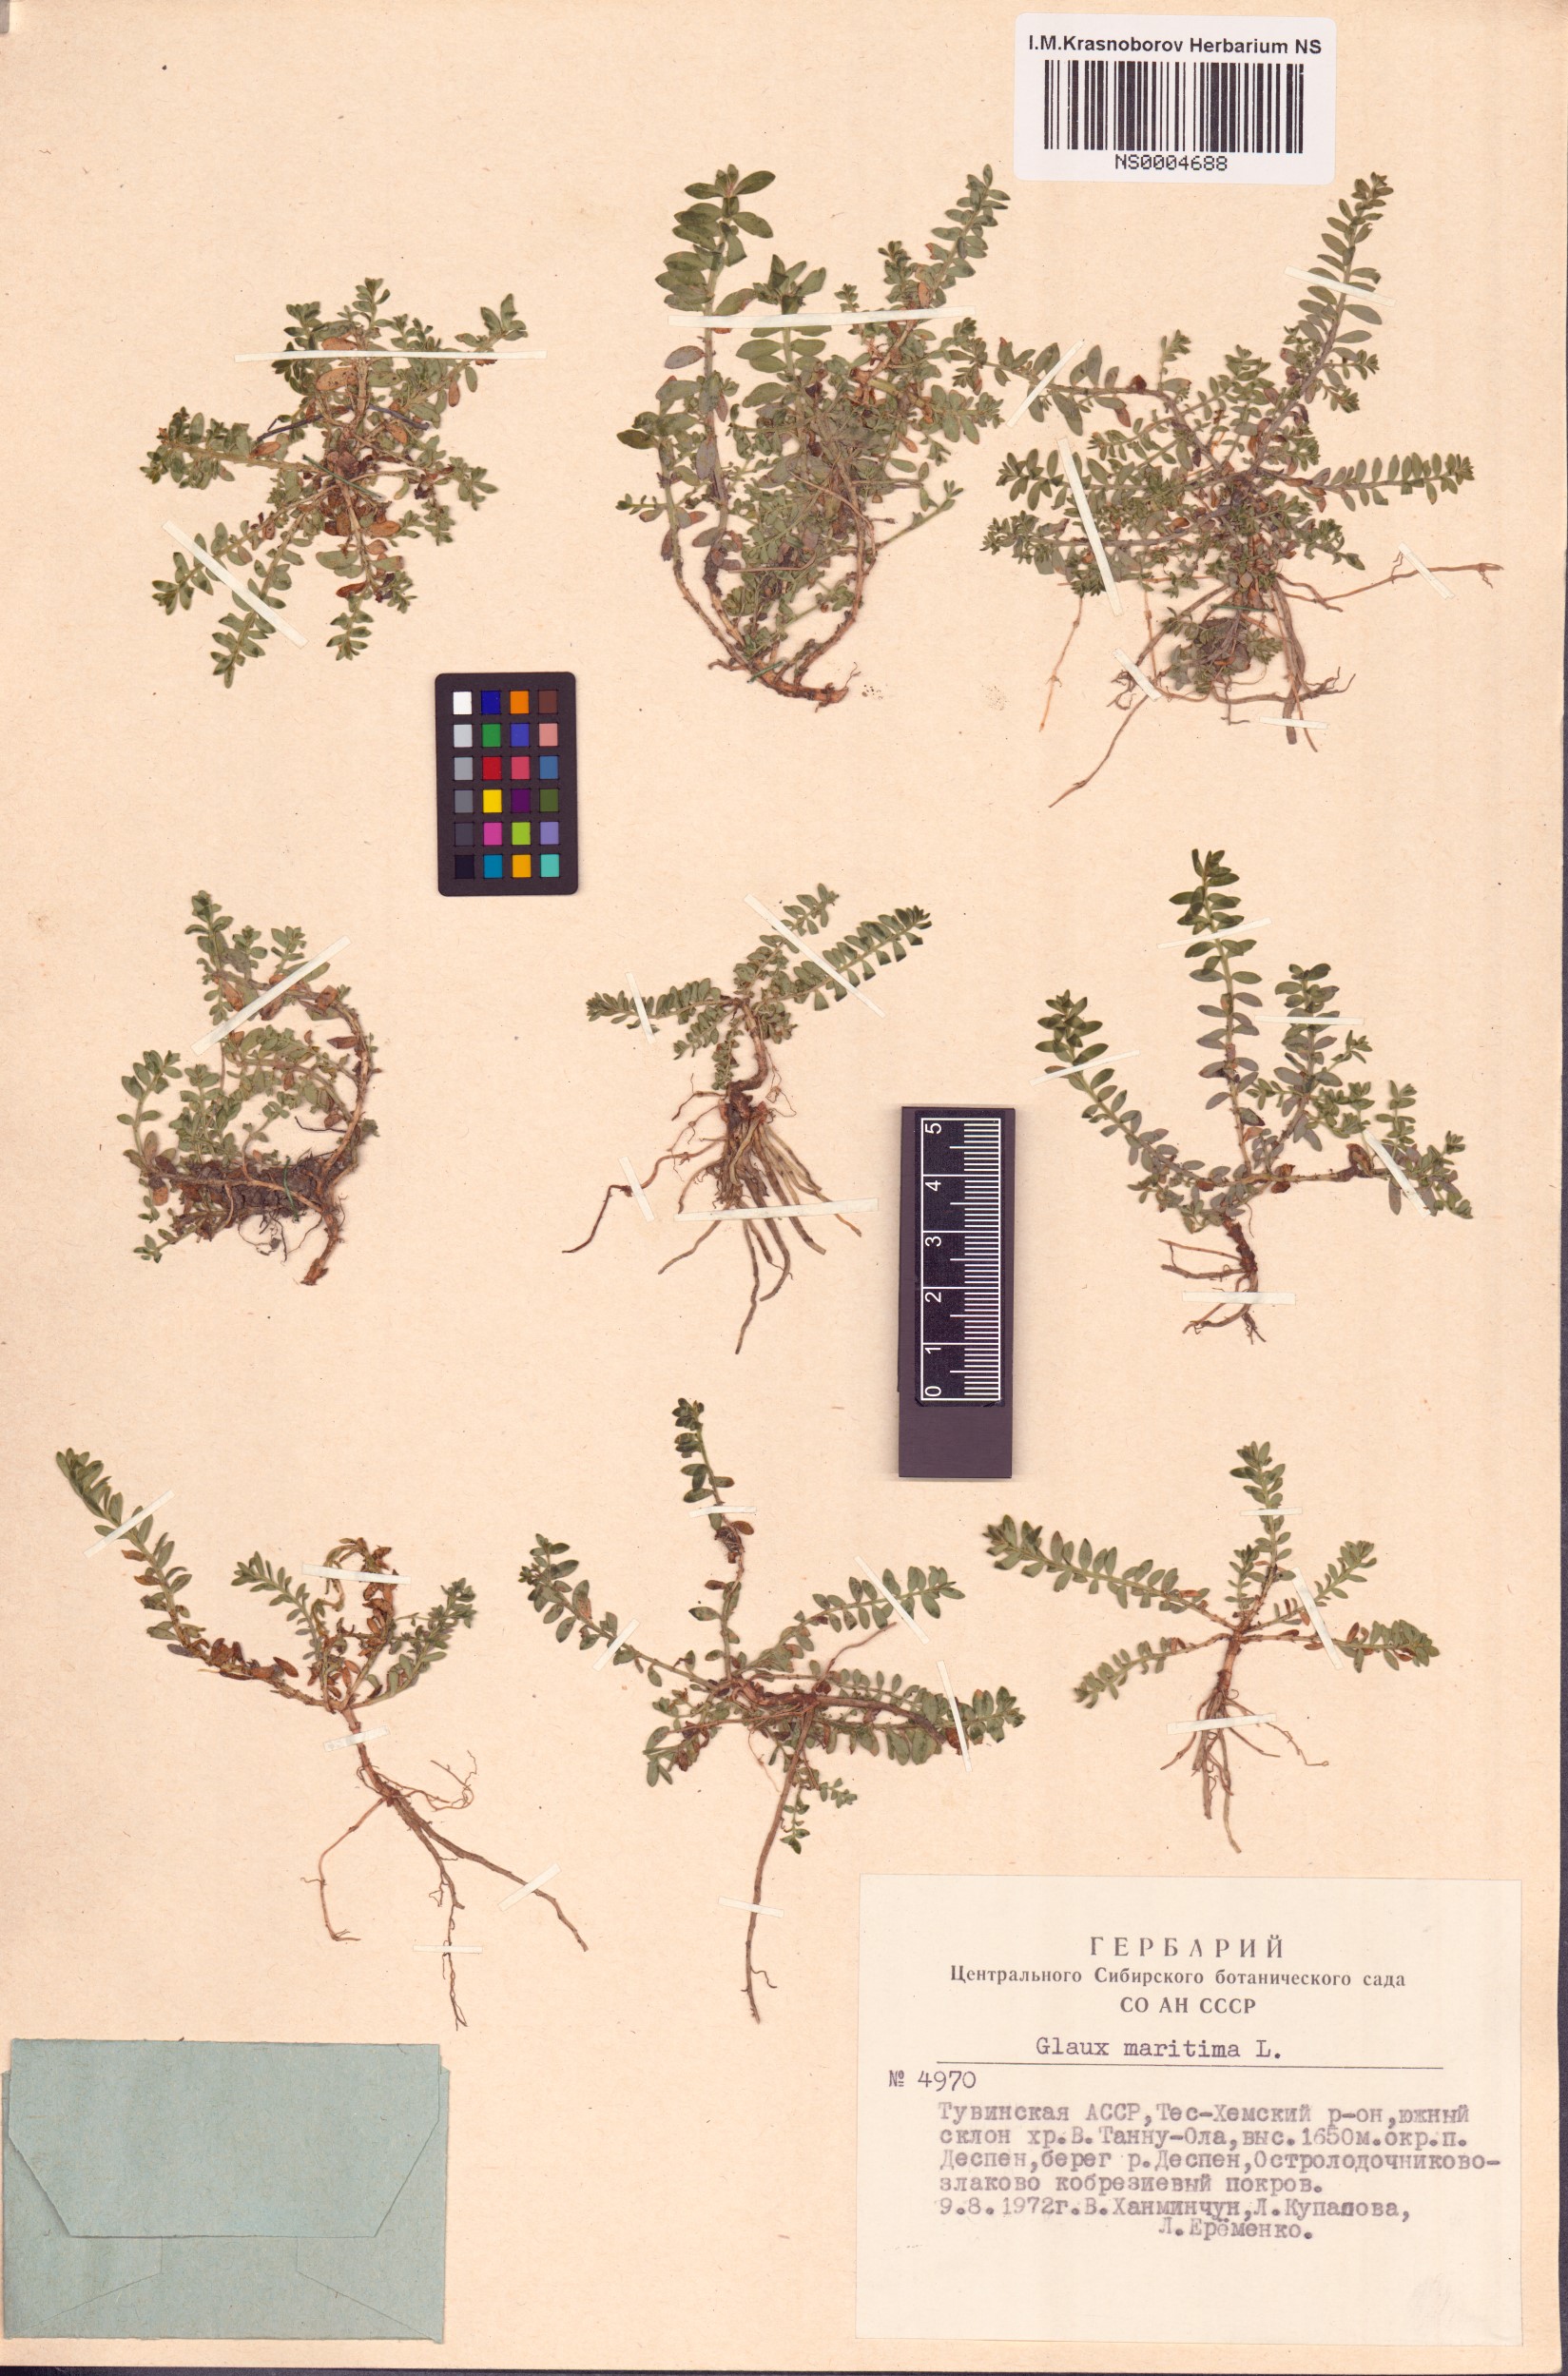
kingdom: Plantae
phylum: Tracheophyta
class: Magnoliopsida
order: Ericales
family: Primulaceae
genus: Lysimachia
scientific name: Lysimachia maritima
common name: Sea milkwort
